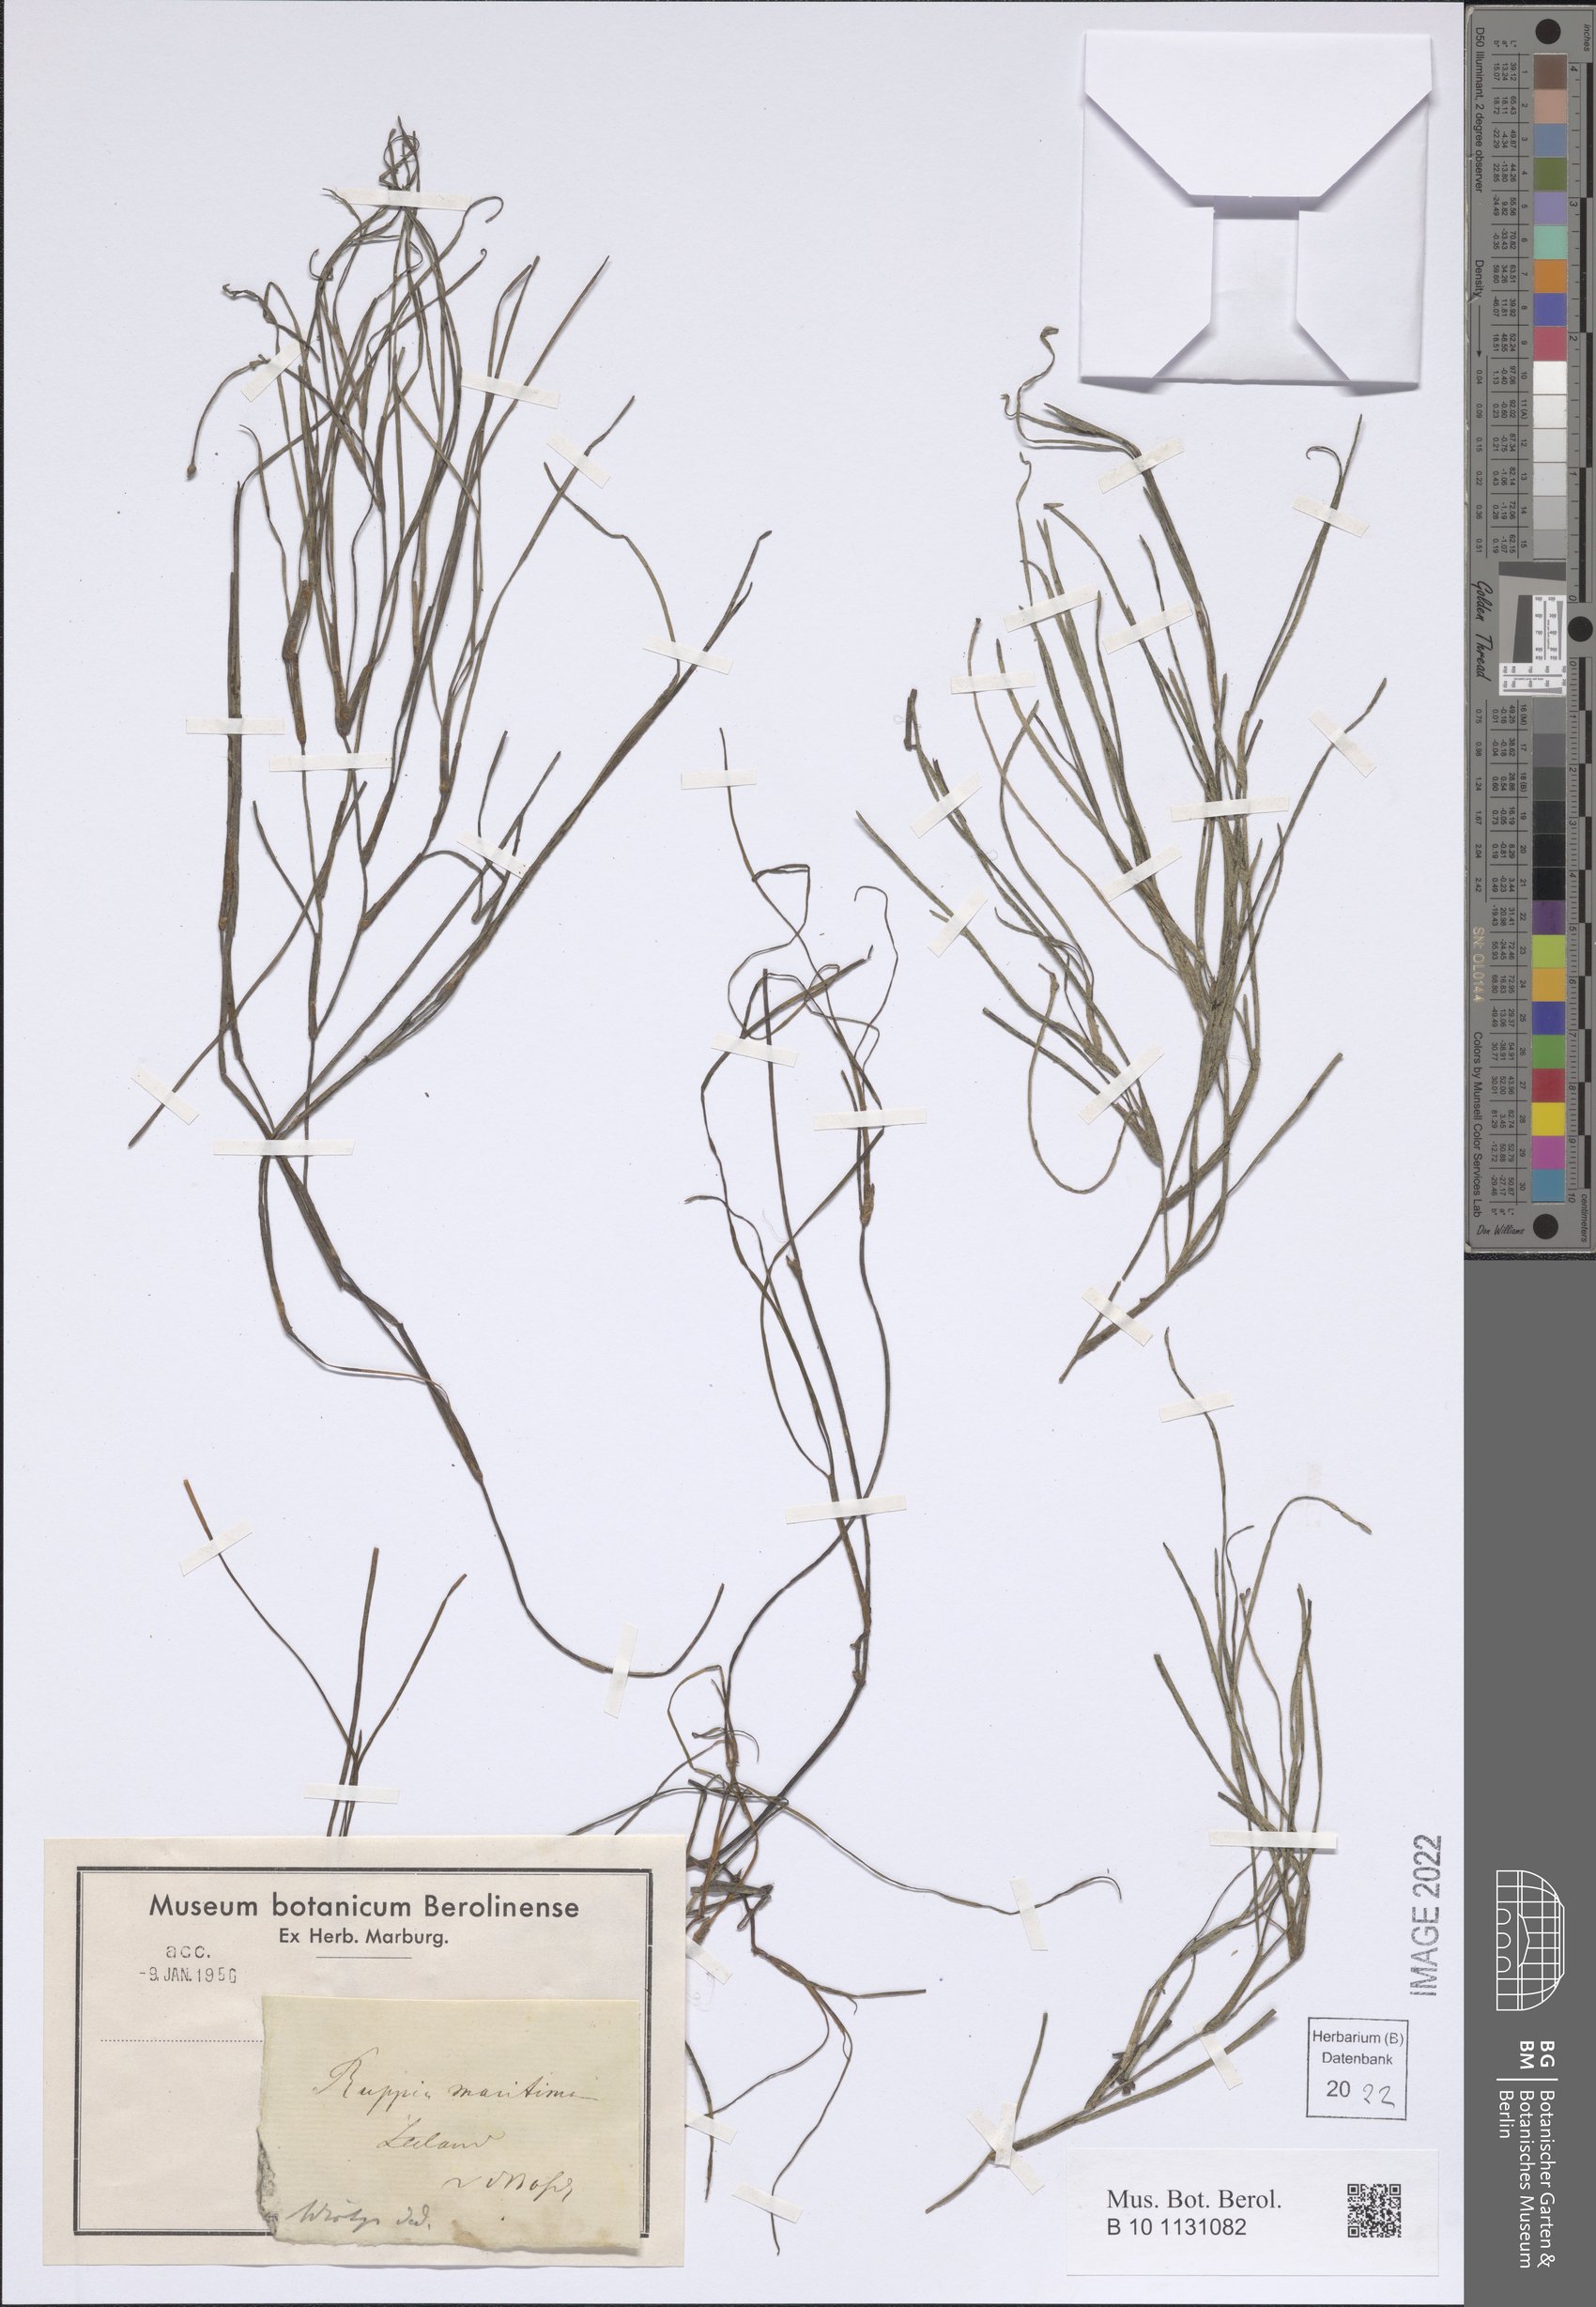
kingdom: Plantae
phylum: Tracheophyta
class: Liliopsida
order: Alismatales
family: Ruppiaceae
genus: Ruppia
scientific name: Ruppia maritima
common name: Beaked tasselweed
